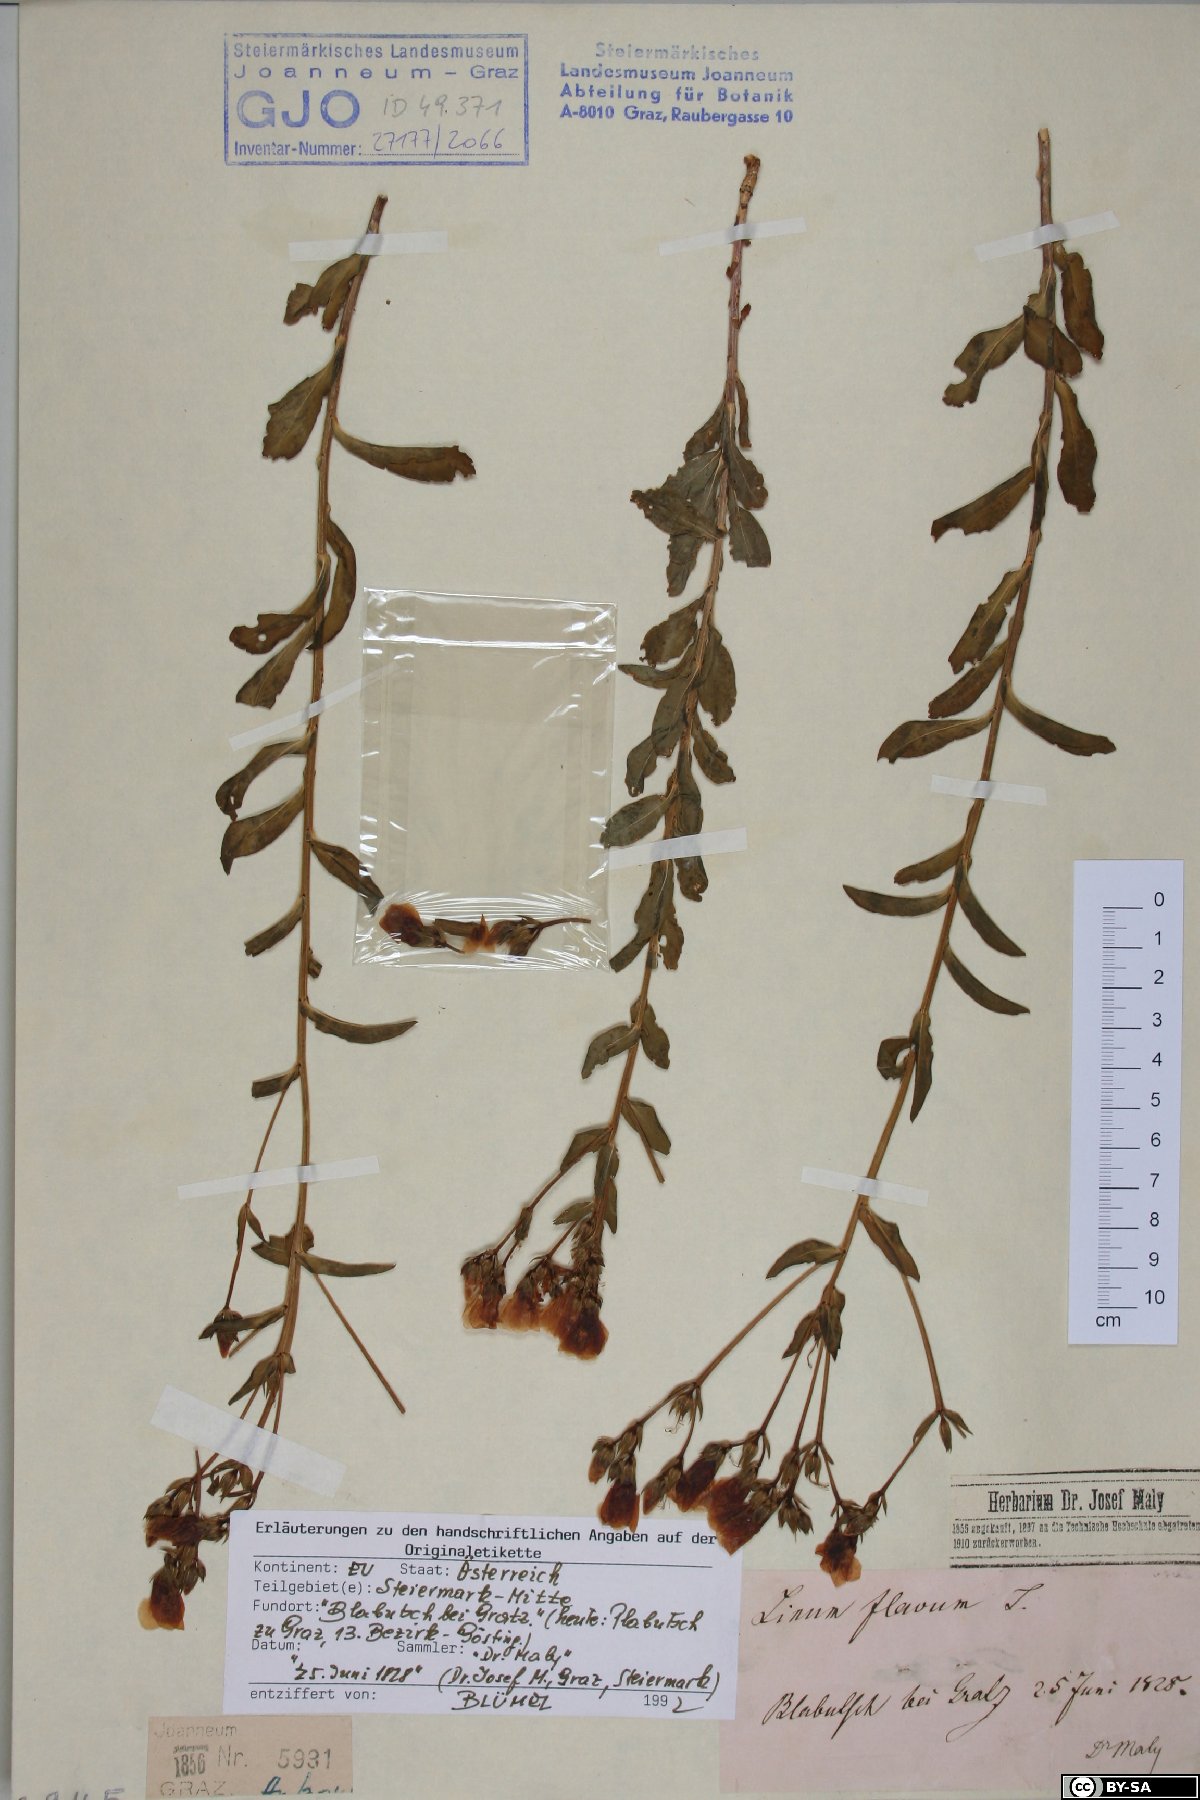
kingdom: Plantae
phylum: Tracheophyta
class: Magnoliopsida
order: Malpighiales
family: Linaceae
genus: Linum
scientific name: Linum flavum
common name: Yellow flax
